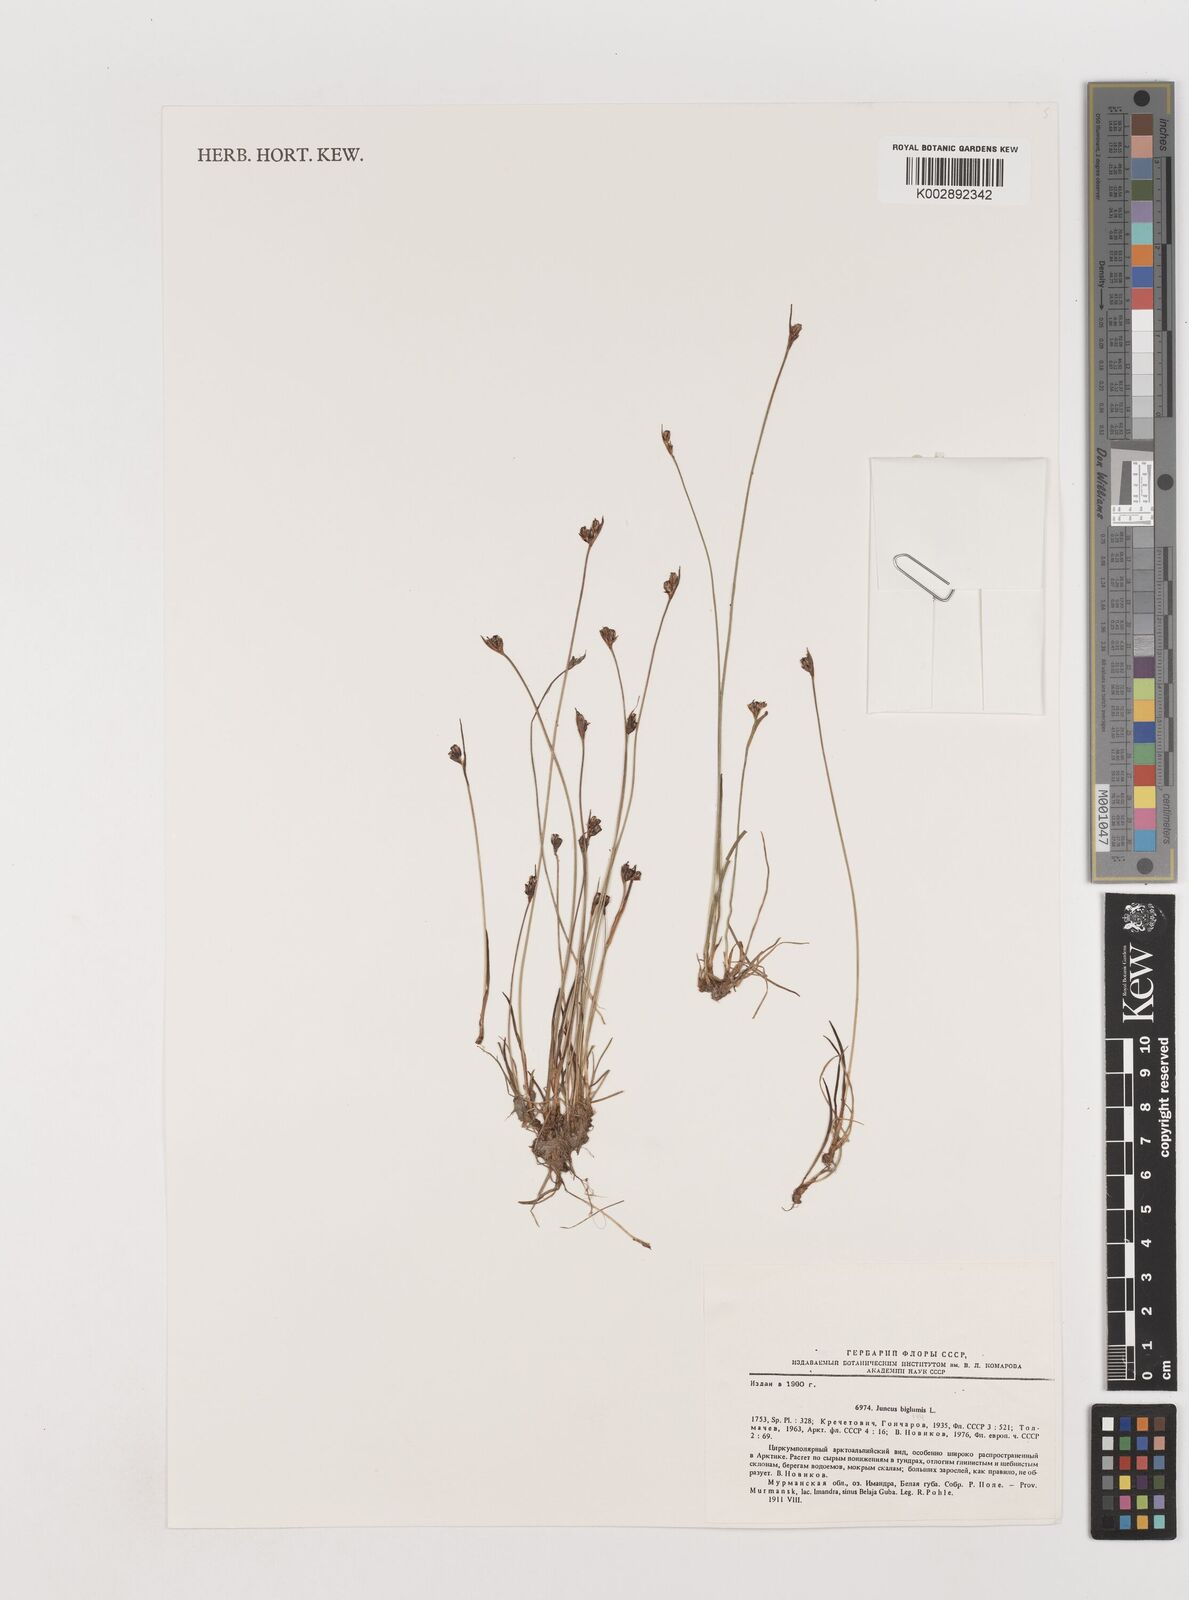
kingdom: Plantae
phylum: Tracheophyta
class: Liliopsida
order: Poales
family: Juncaceae
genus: Juncus
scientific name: Juncus biglumis
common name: Two-flowered rush
